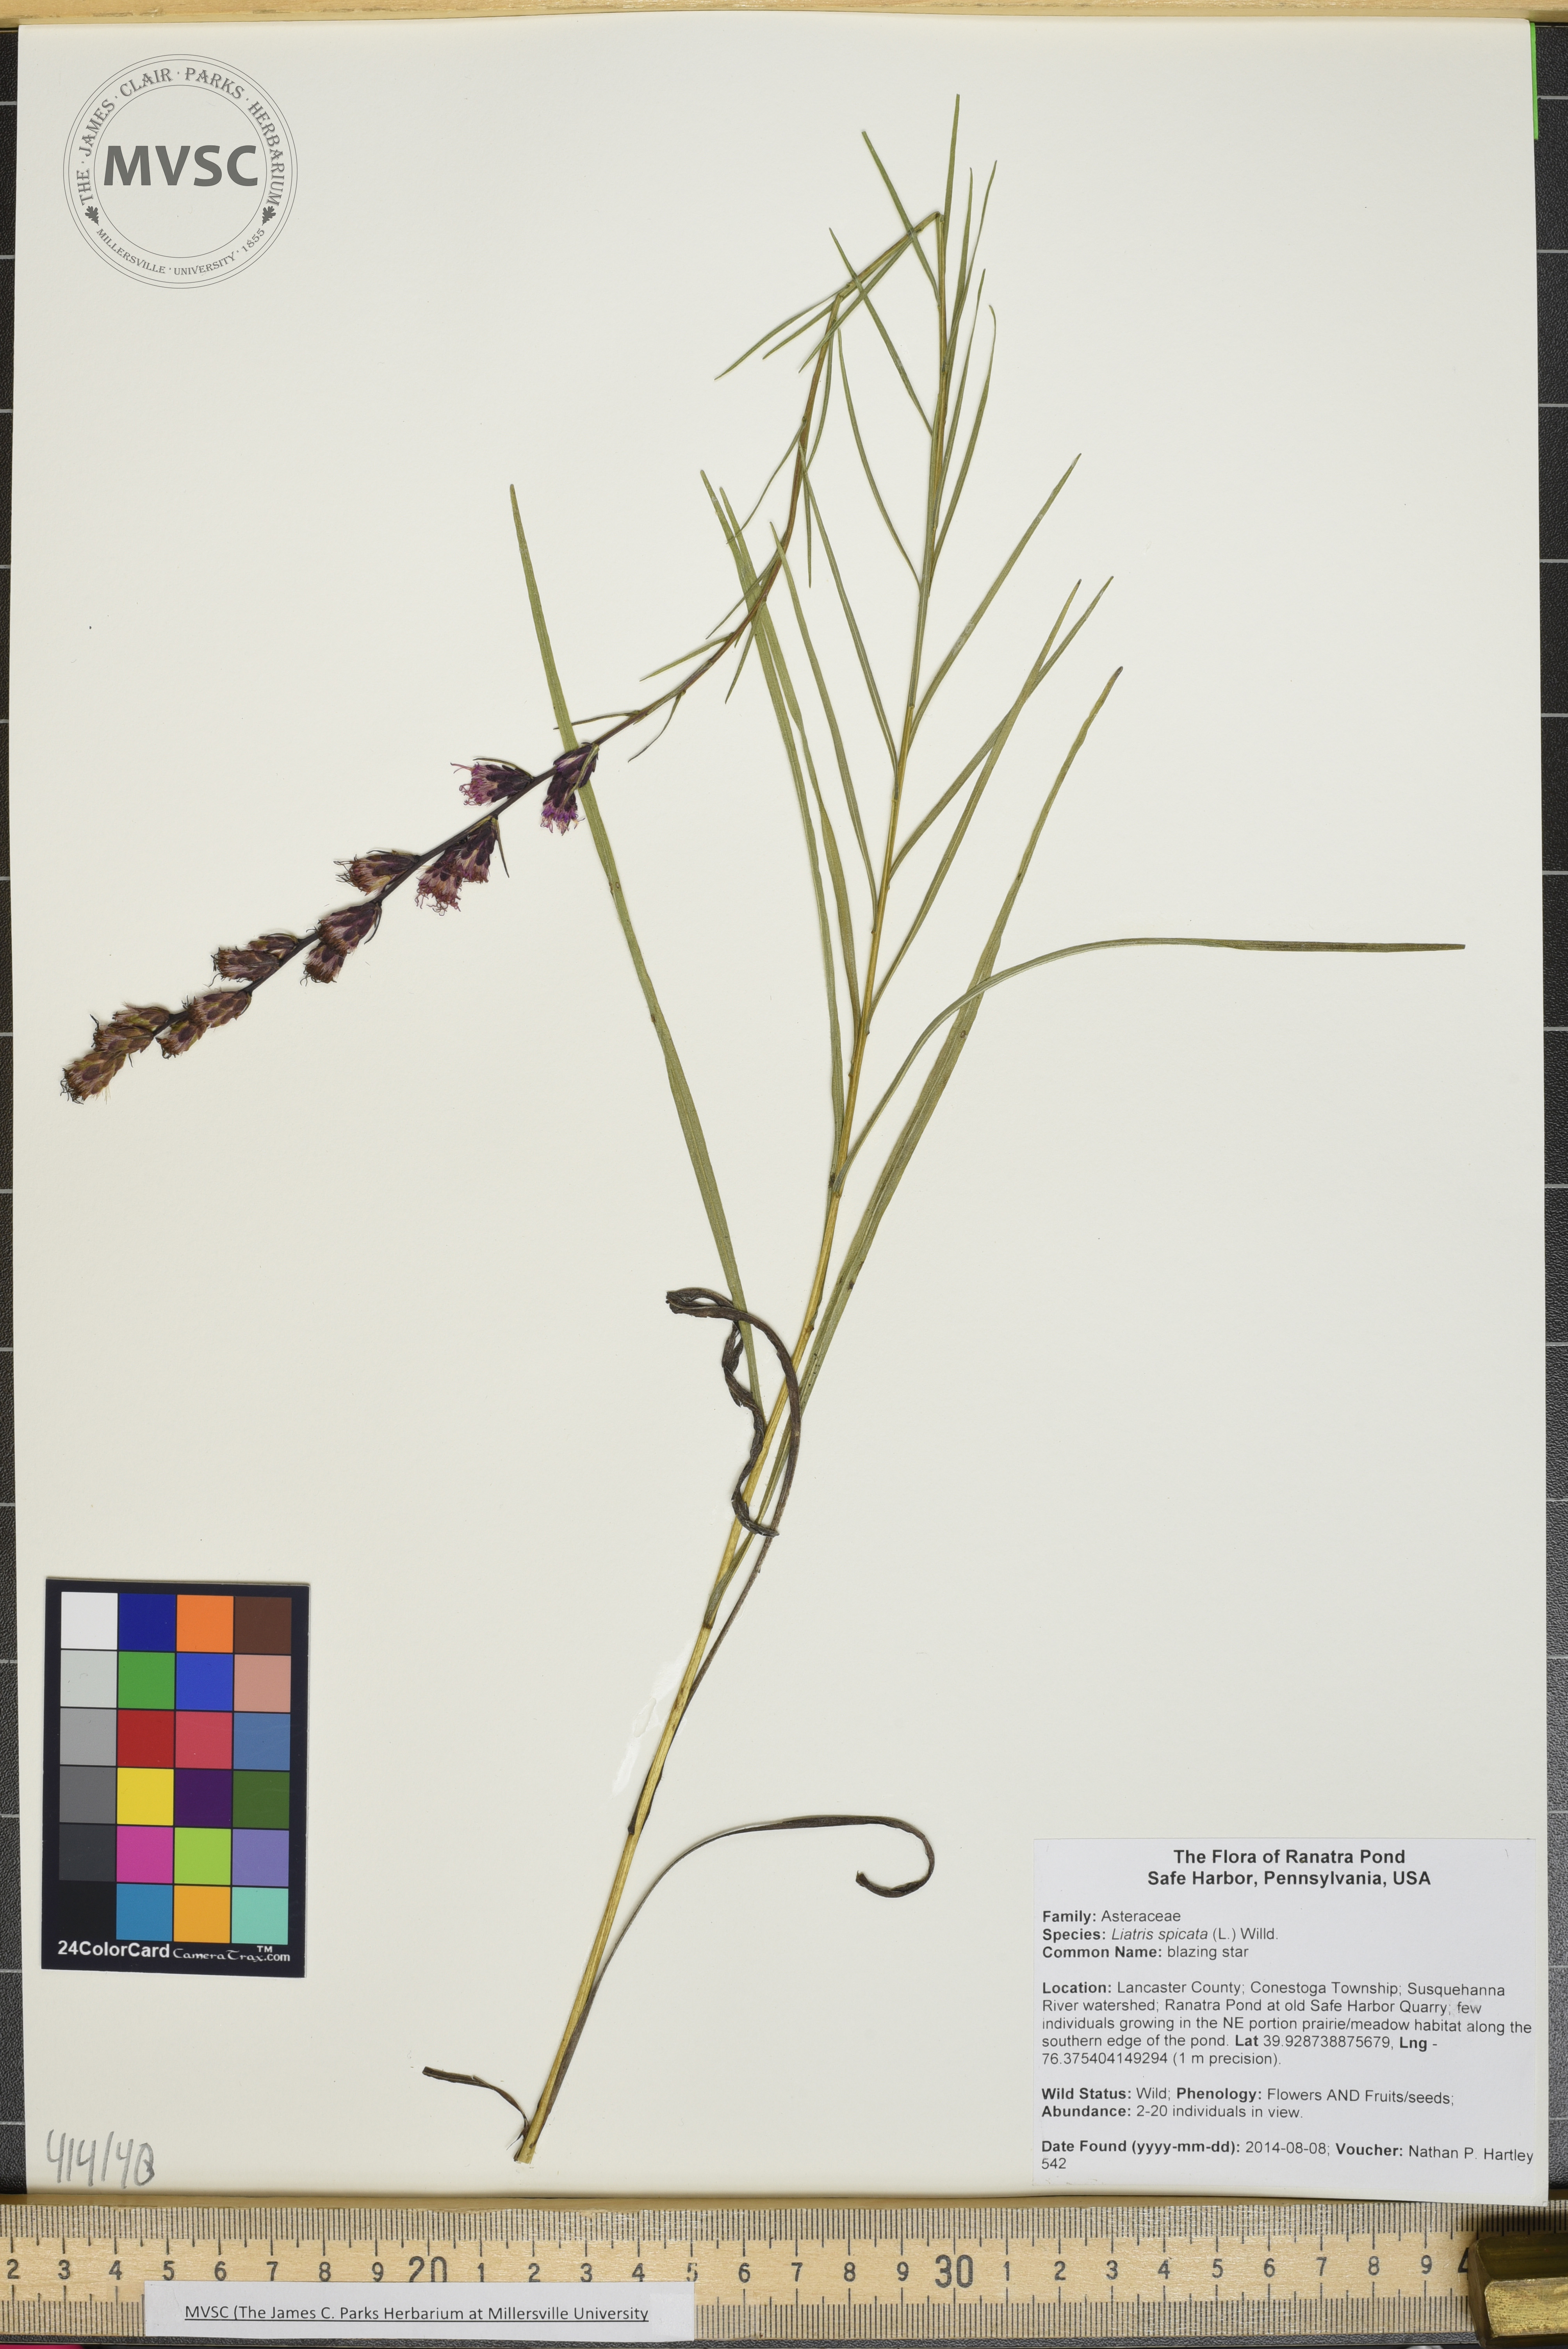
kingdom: Plantae
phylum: Tracheophyta
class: Magnoliopsida
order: Asterales
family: Asteraceae
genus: Liatris
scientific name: Liatris spicata
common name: blazing star
